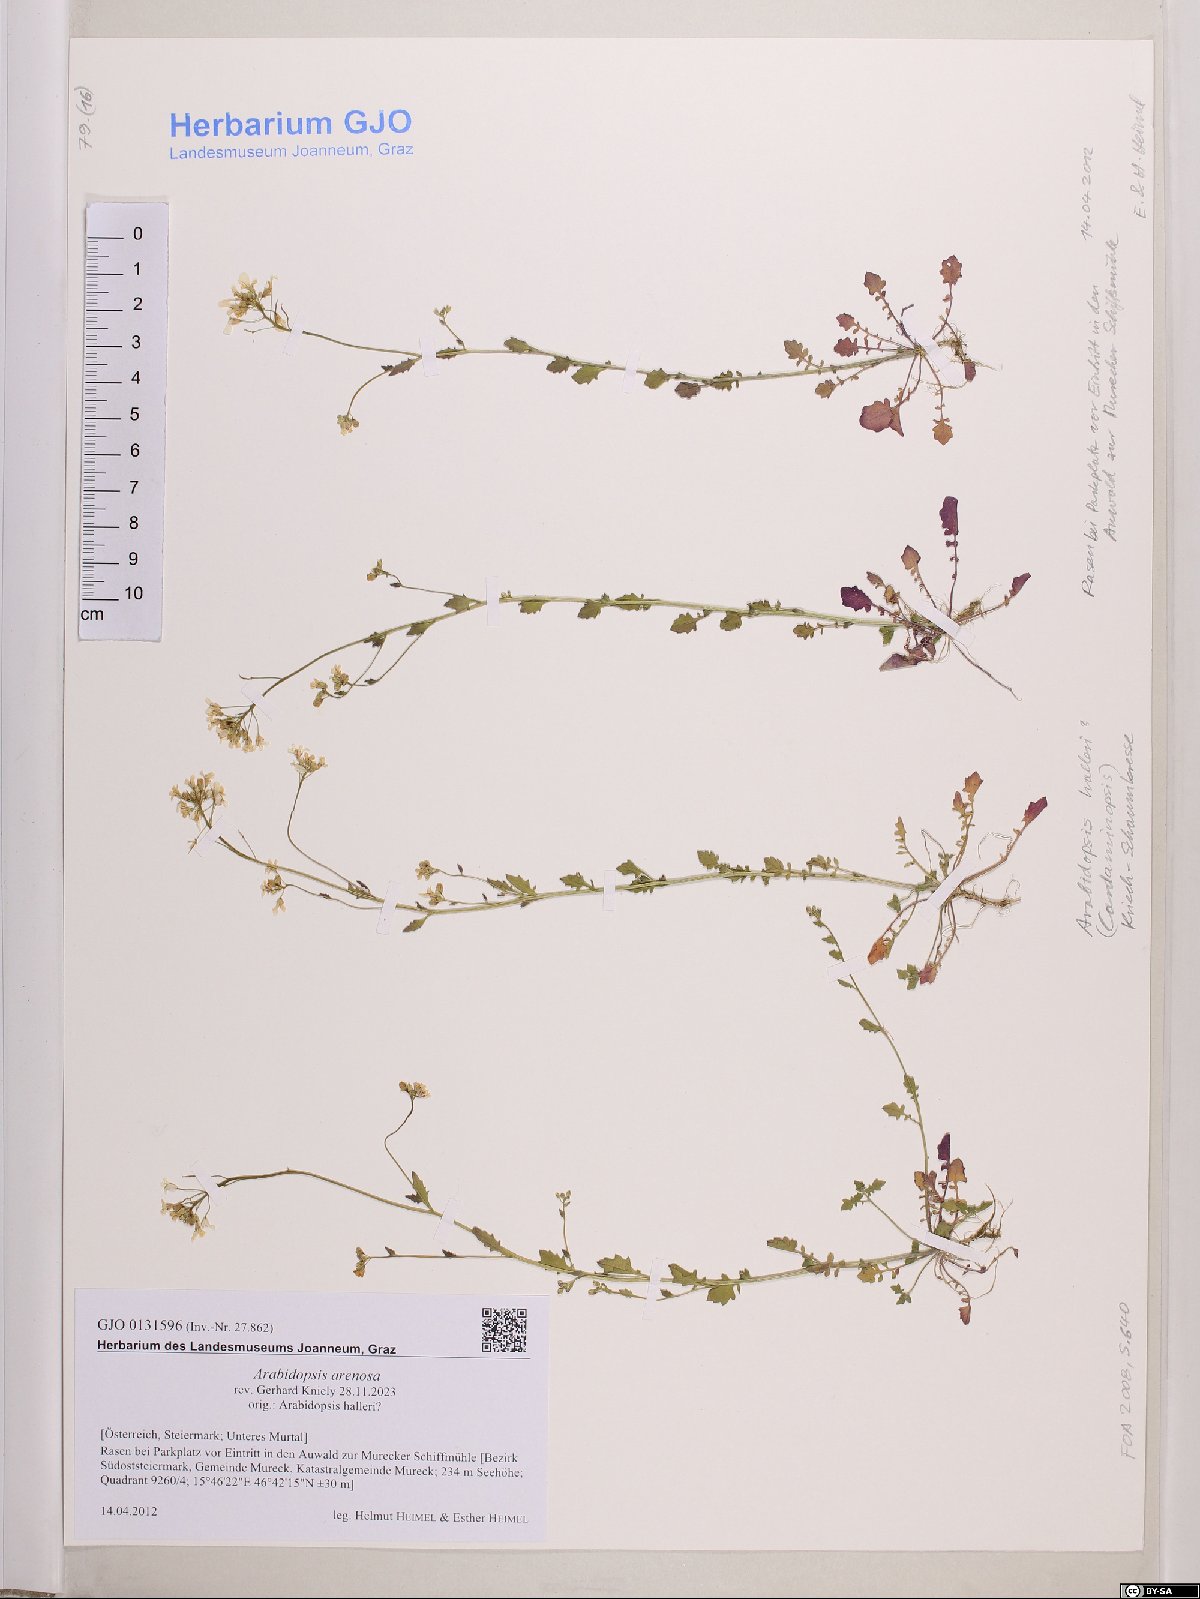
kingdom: Plantae
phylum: Tracheophyta
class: Magnoliopsida
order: Brassicales
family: Brassicaceae
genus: Arabidopsis
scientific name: Arabidopsis arenosa
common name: Sand rock-cress
